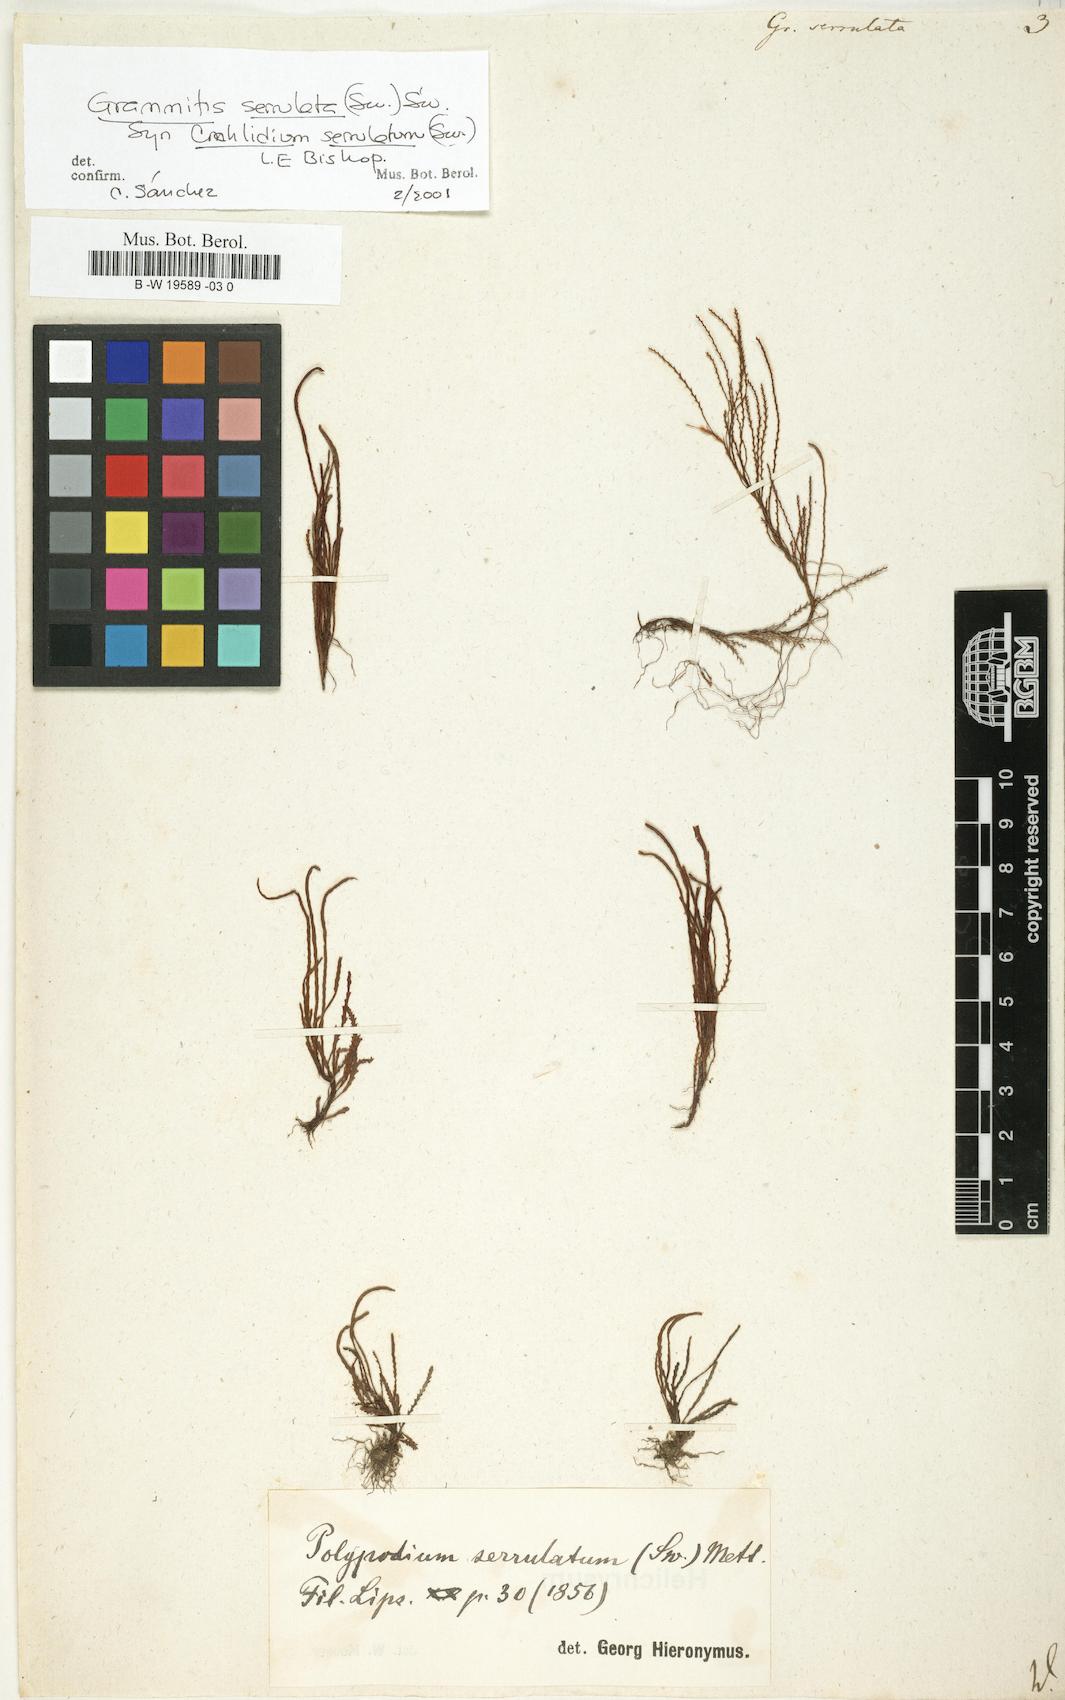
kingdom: Plantae
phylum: Tracheophyta
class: Polypodiopsida
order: Polypodiales
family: Polypodiaceae
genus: Cochlidium
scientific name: Cochlidium serrulatum
